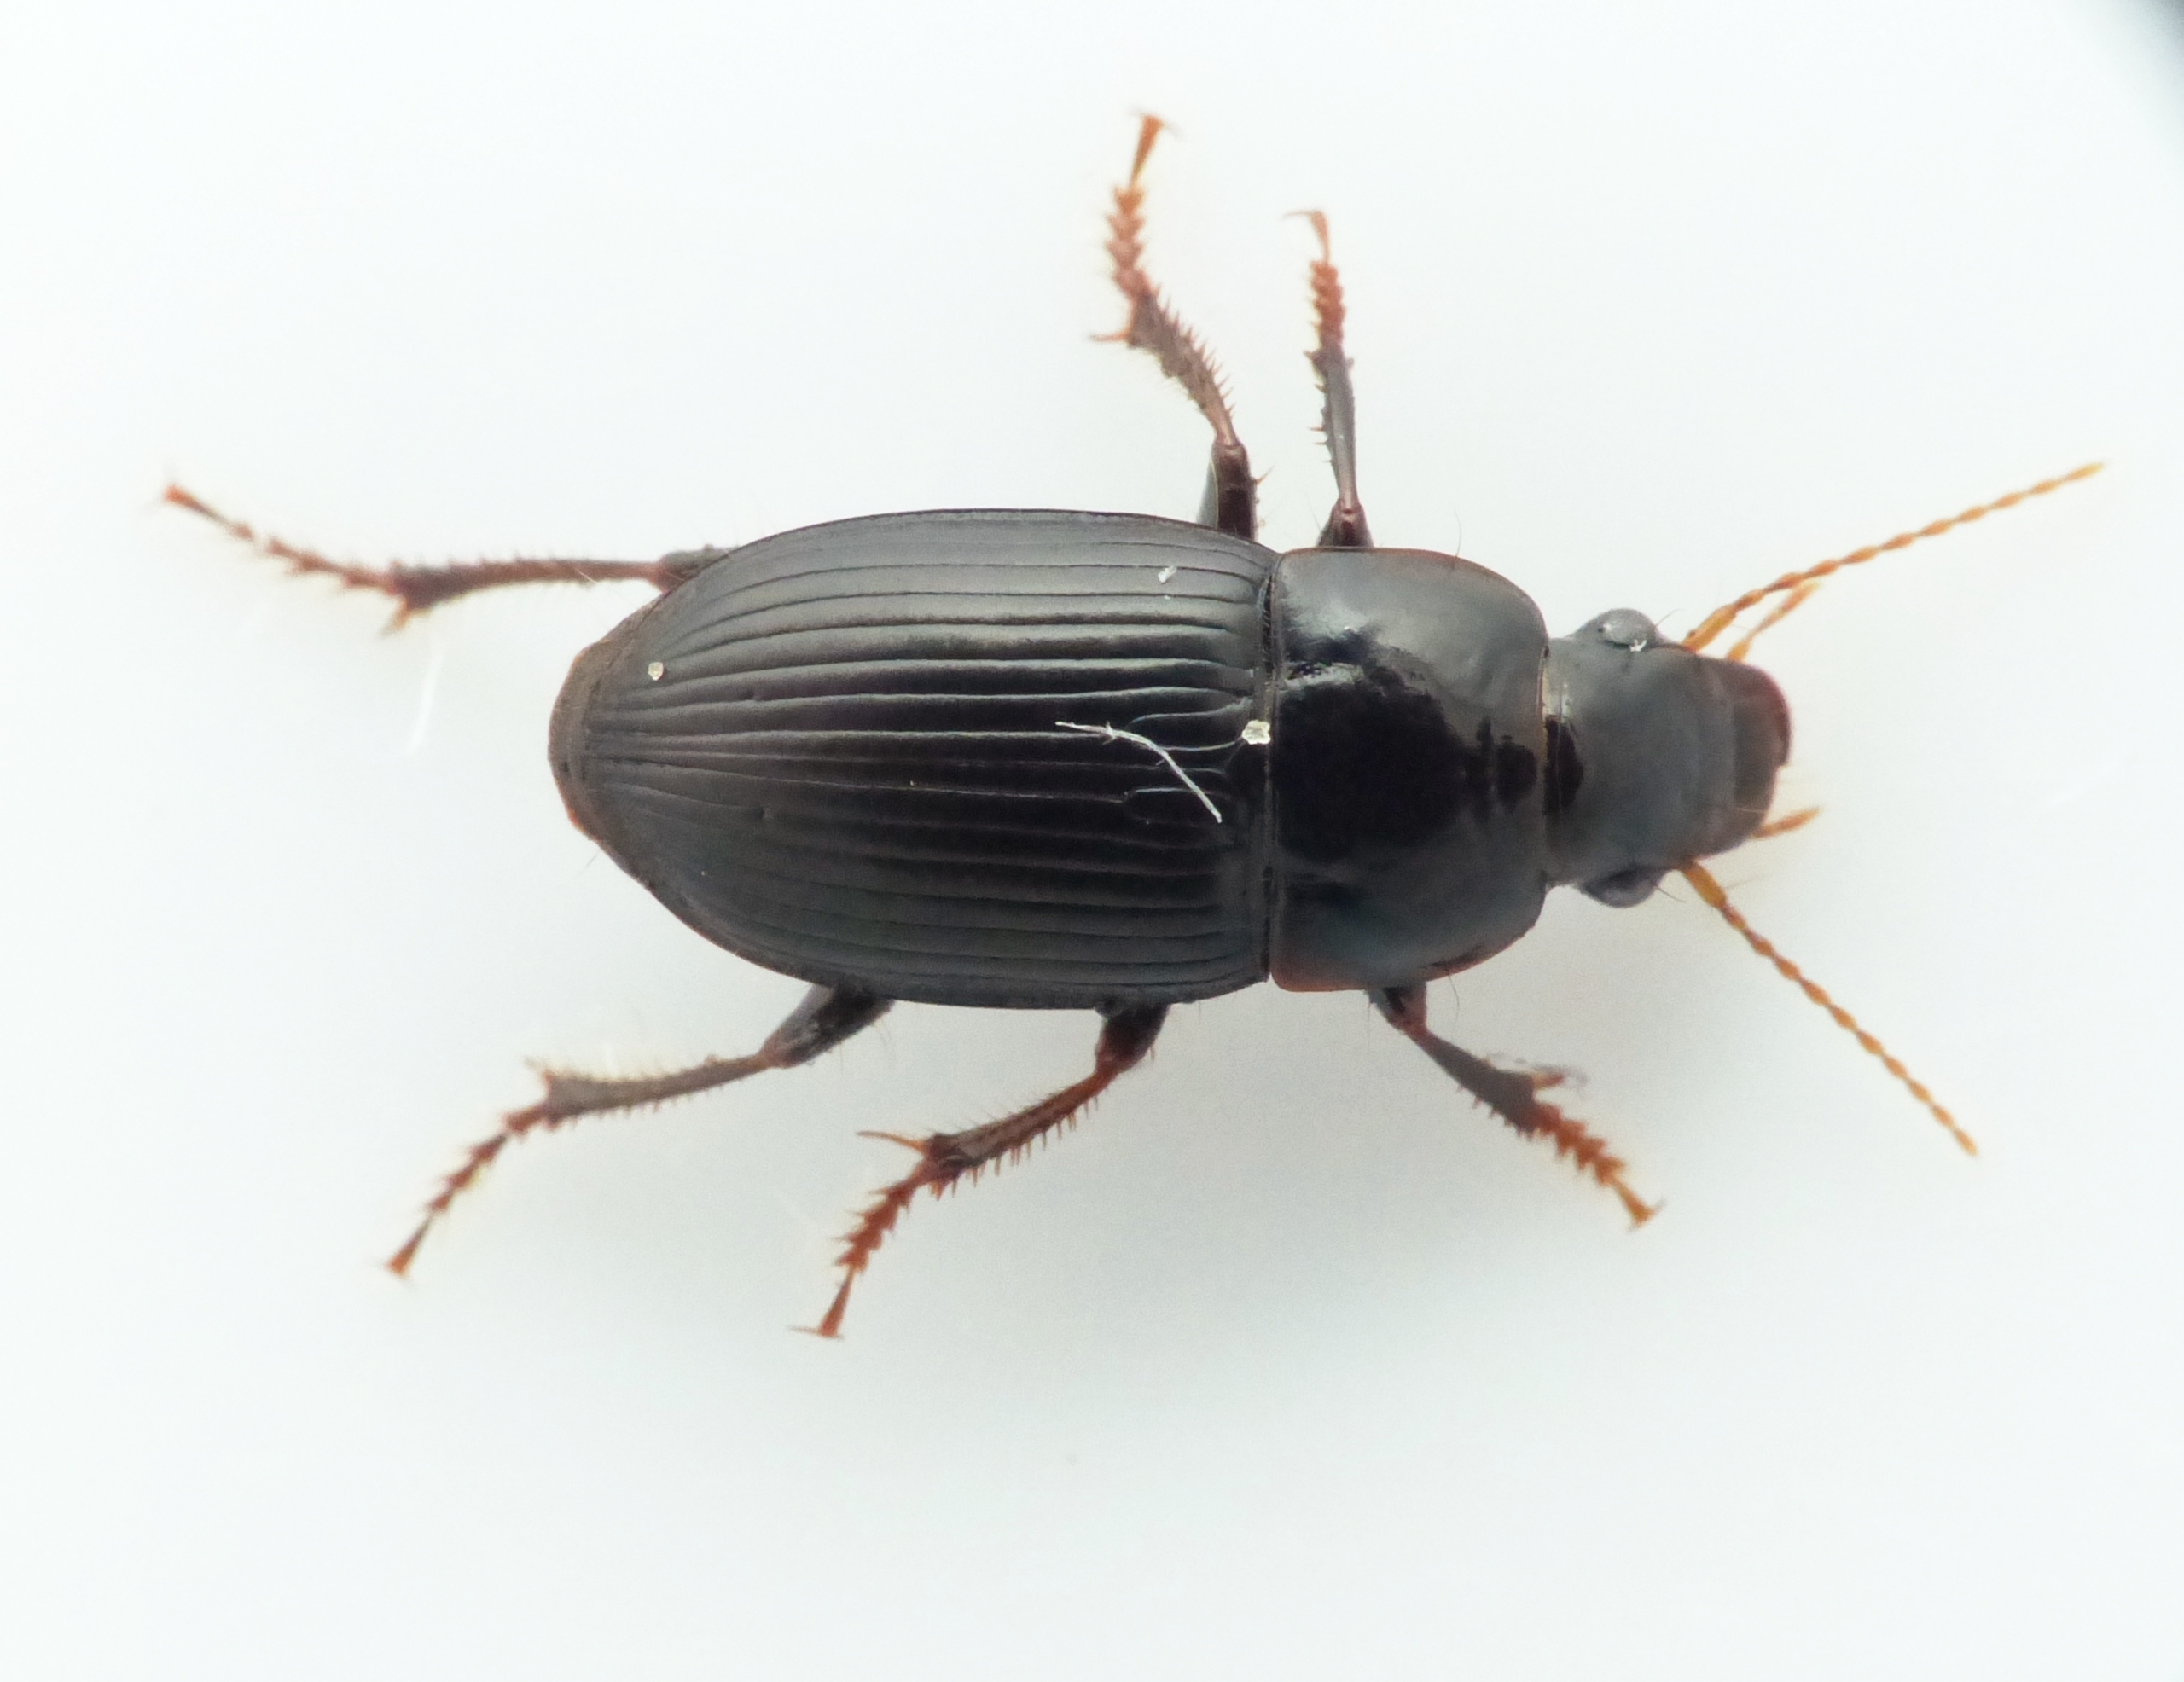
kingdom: Animalia
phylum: Arthropoda
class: Insecta
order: Coleoptera
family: Carabidae
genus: Harpalus
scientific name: Harpalus froelichii
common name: Bred sandløber
